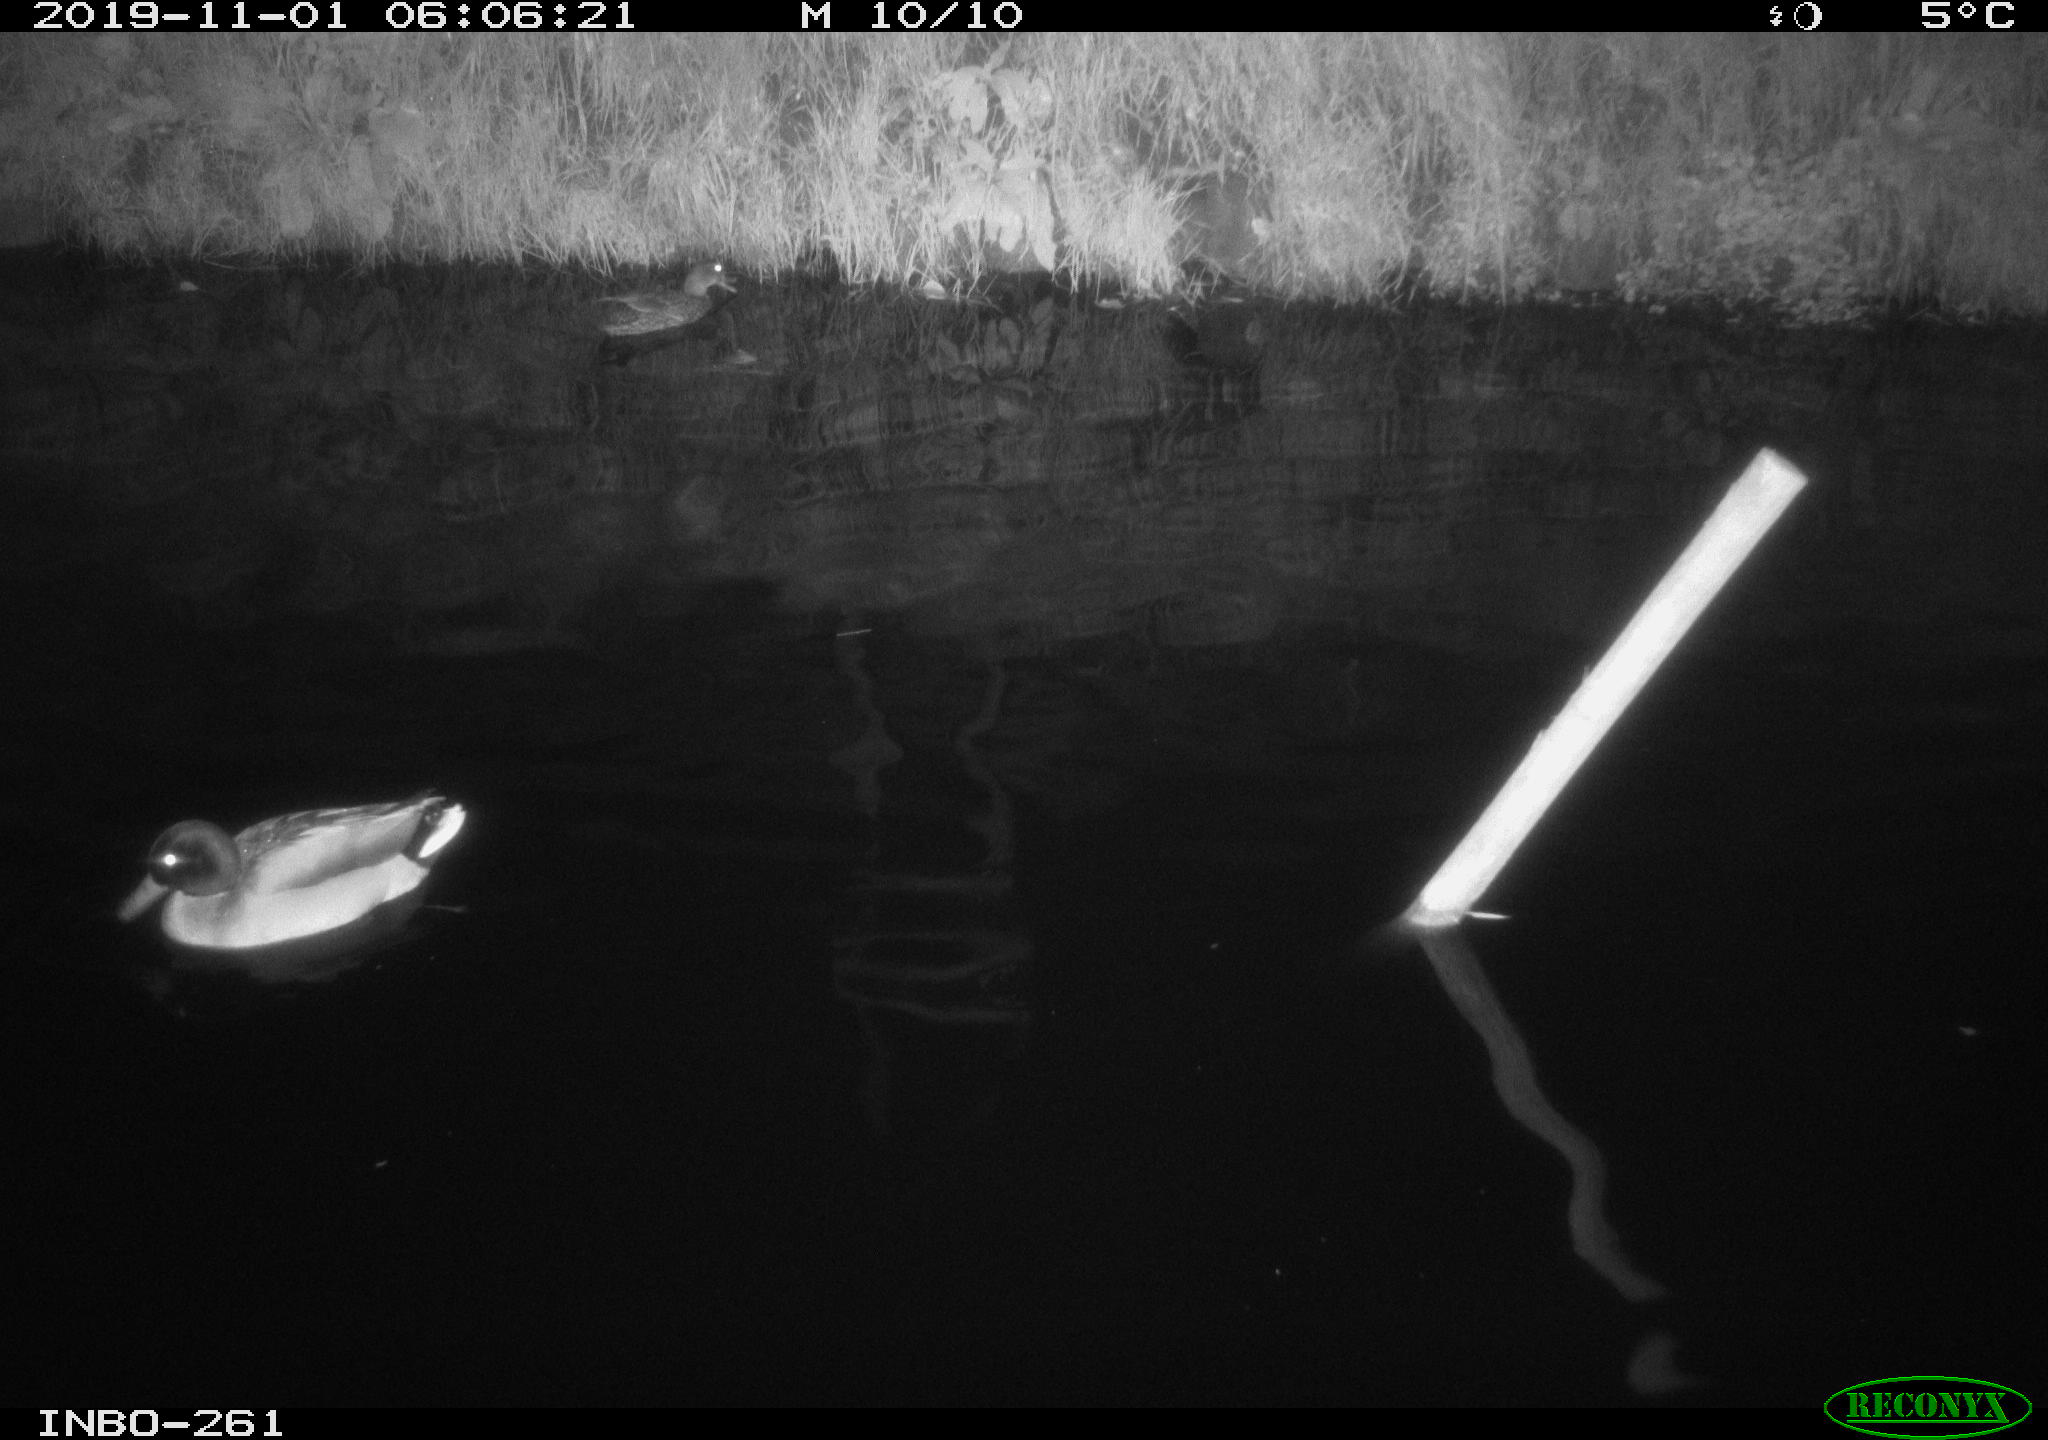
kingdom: Animalia
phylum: Chordata
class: Aves
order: Anseriformes
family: Anatidae
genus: Anas
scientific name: Anas platyrhynchos
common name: Mallard
